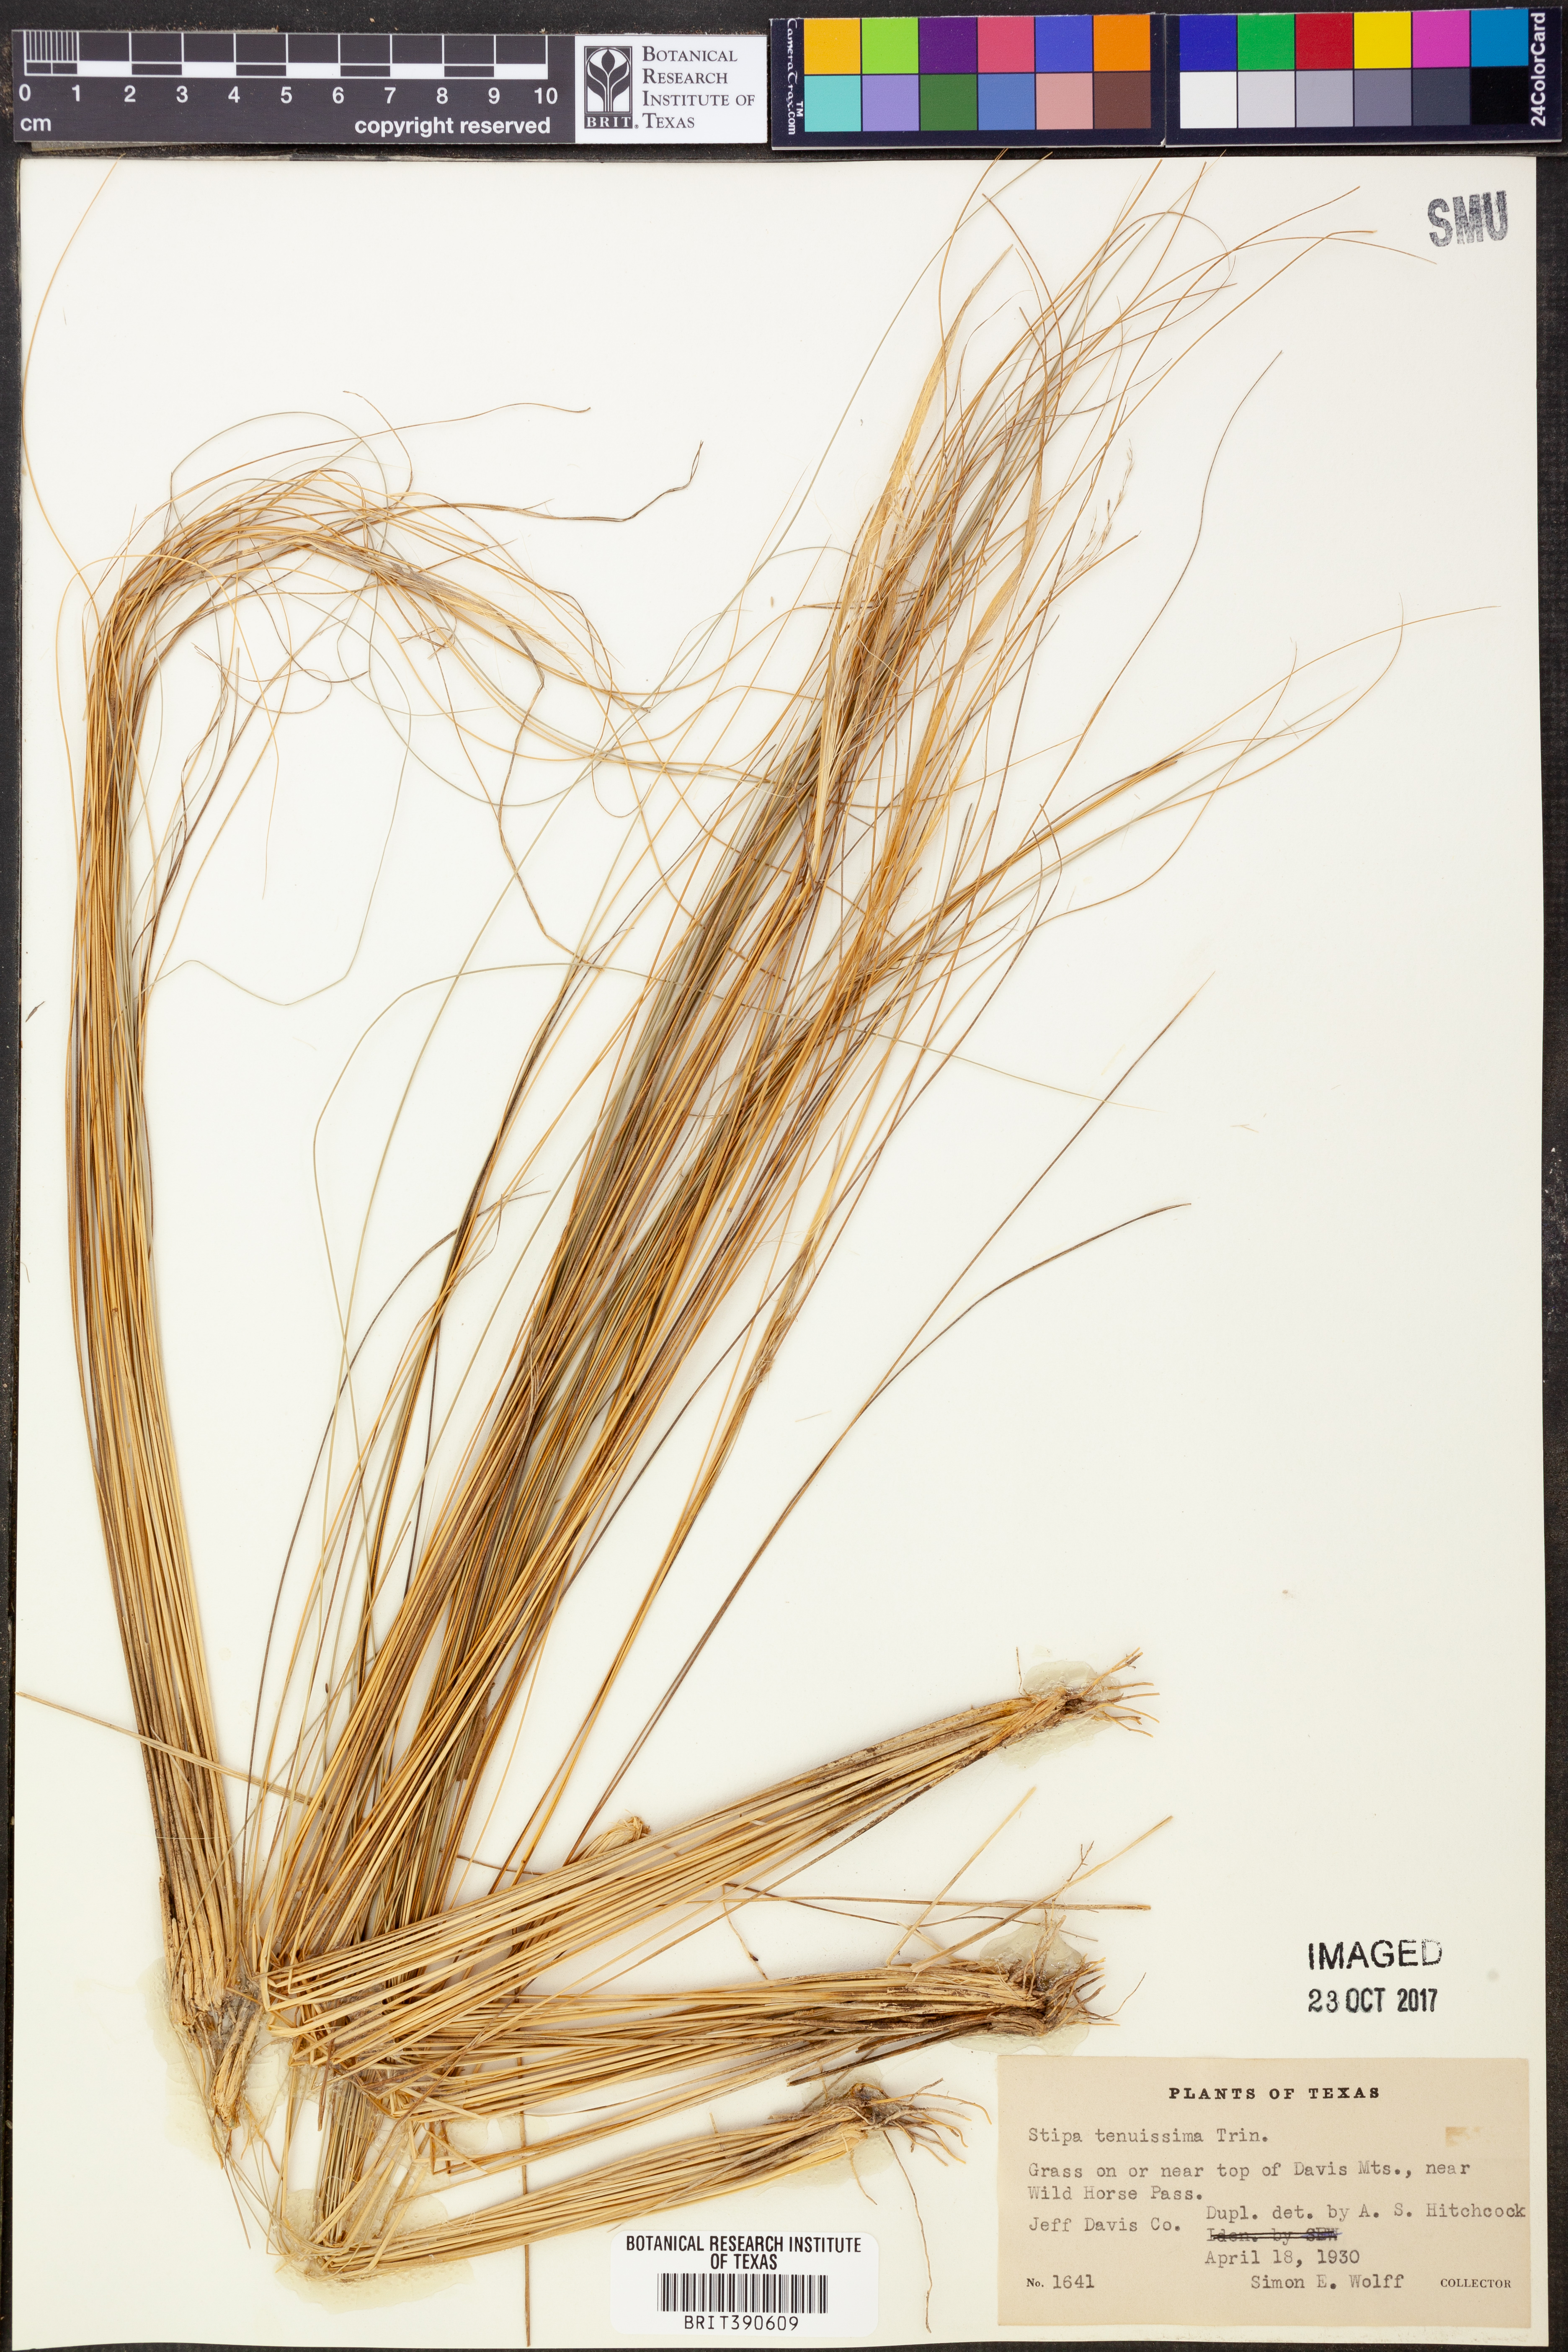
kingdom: Plantae
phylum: Tracheophyta
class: Liliopsida
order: Poales
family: Poaceae
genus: Nassella
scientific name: Nassella tenuissima
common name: Argentine needlegrass
